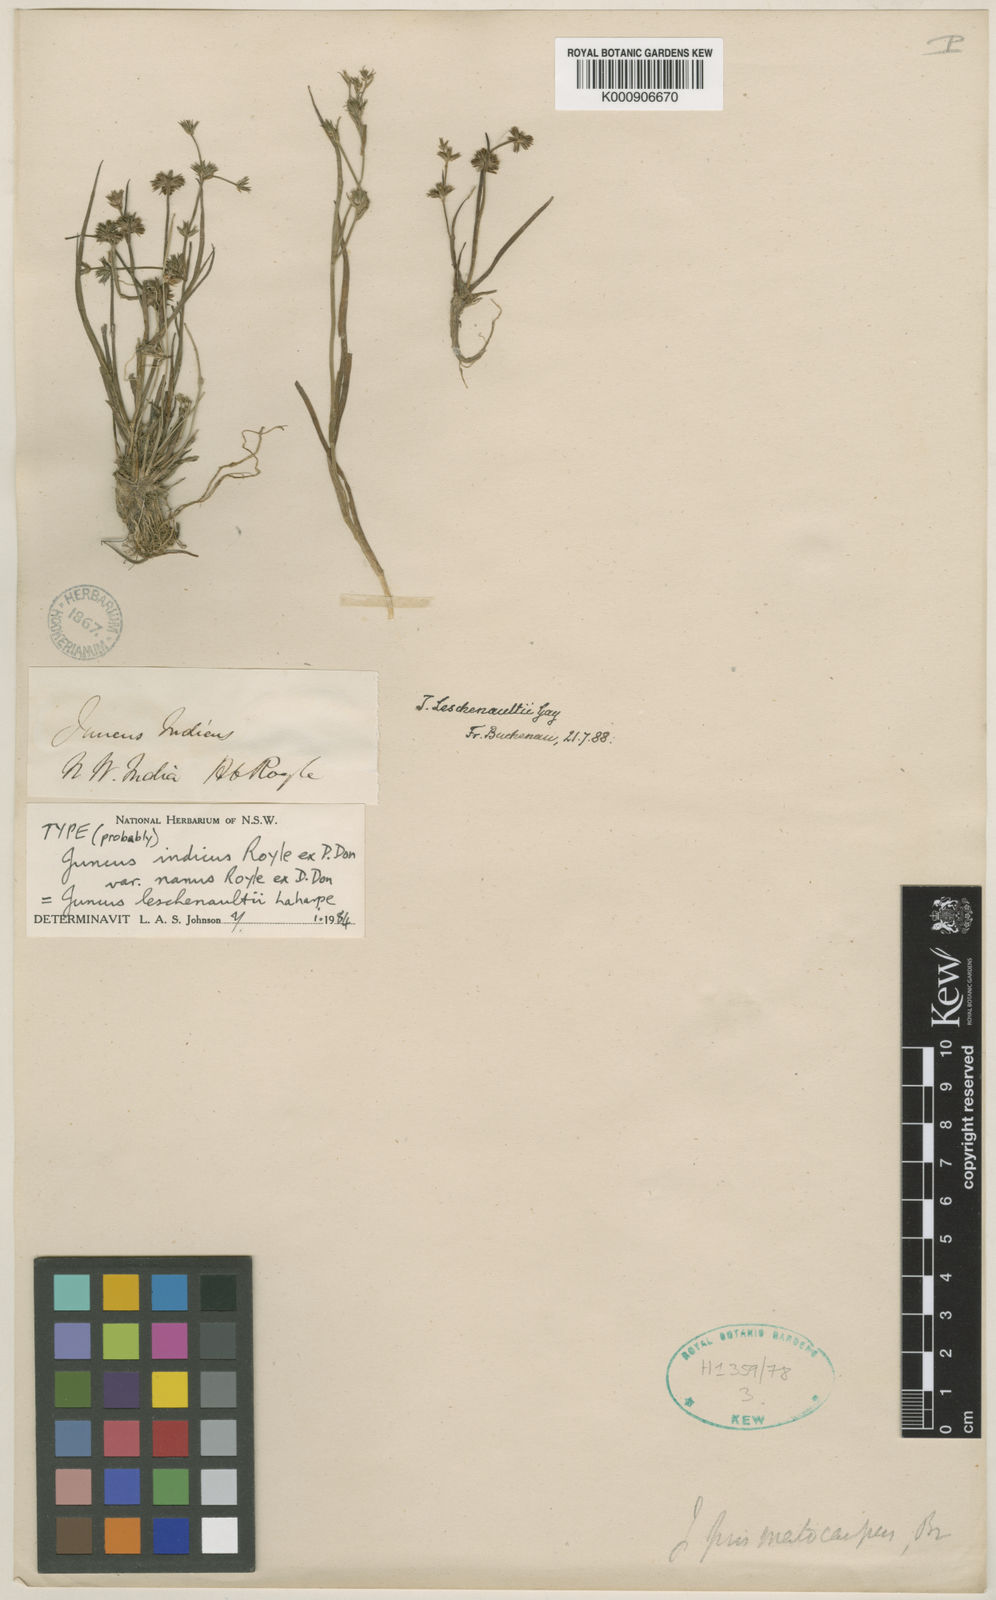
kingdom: Plantae
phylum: Tracheophyta
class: Liliopsida
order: Poales
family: Juncaceae
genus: Juncus
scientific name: Juncus prismatocarpus
